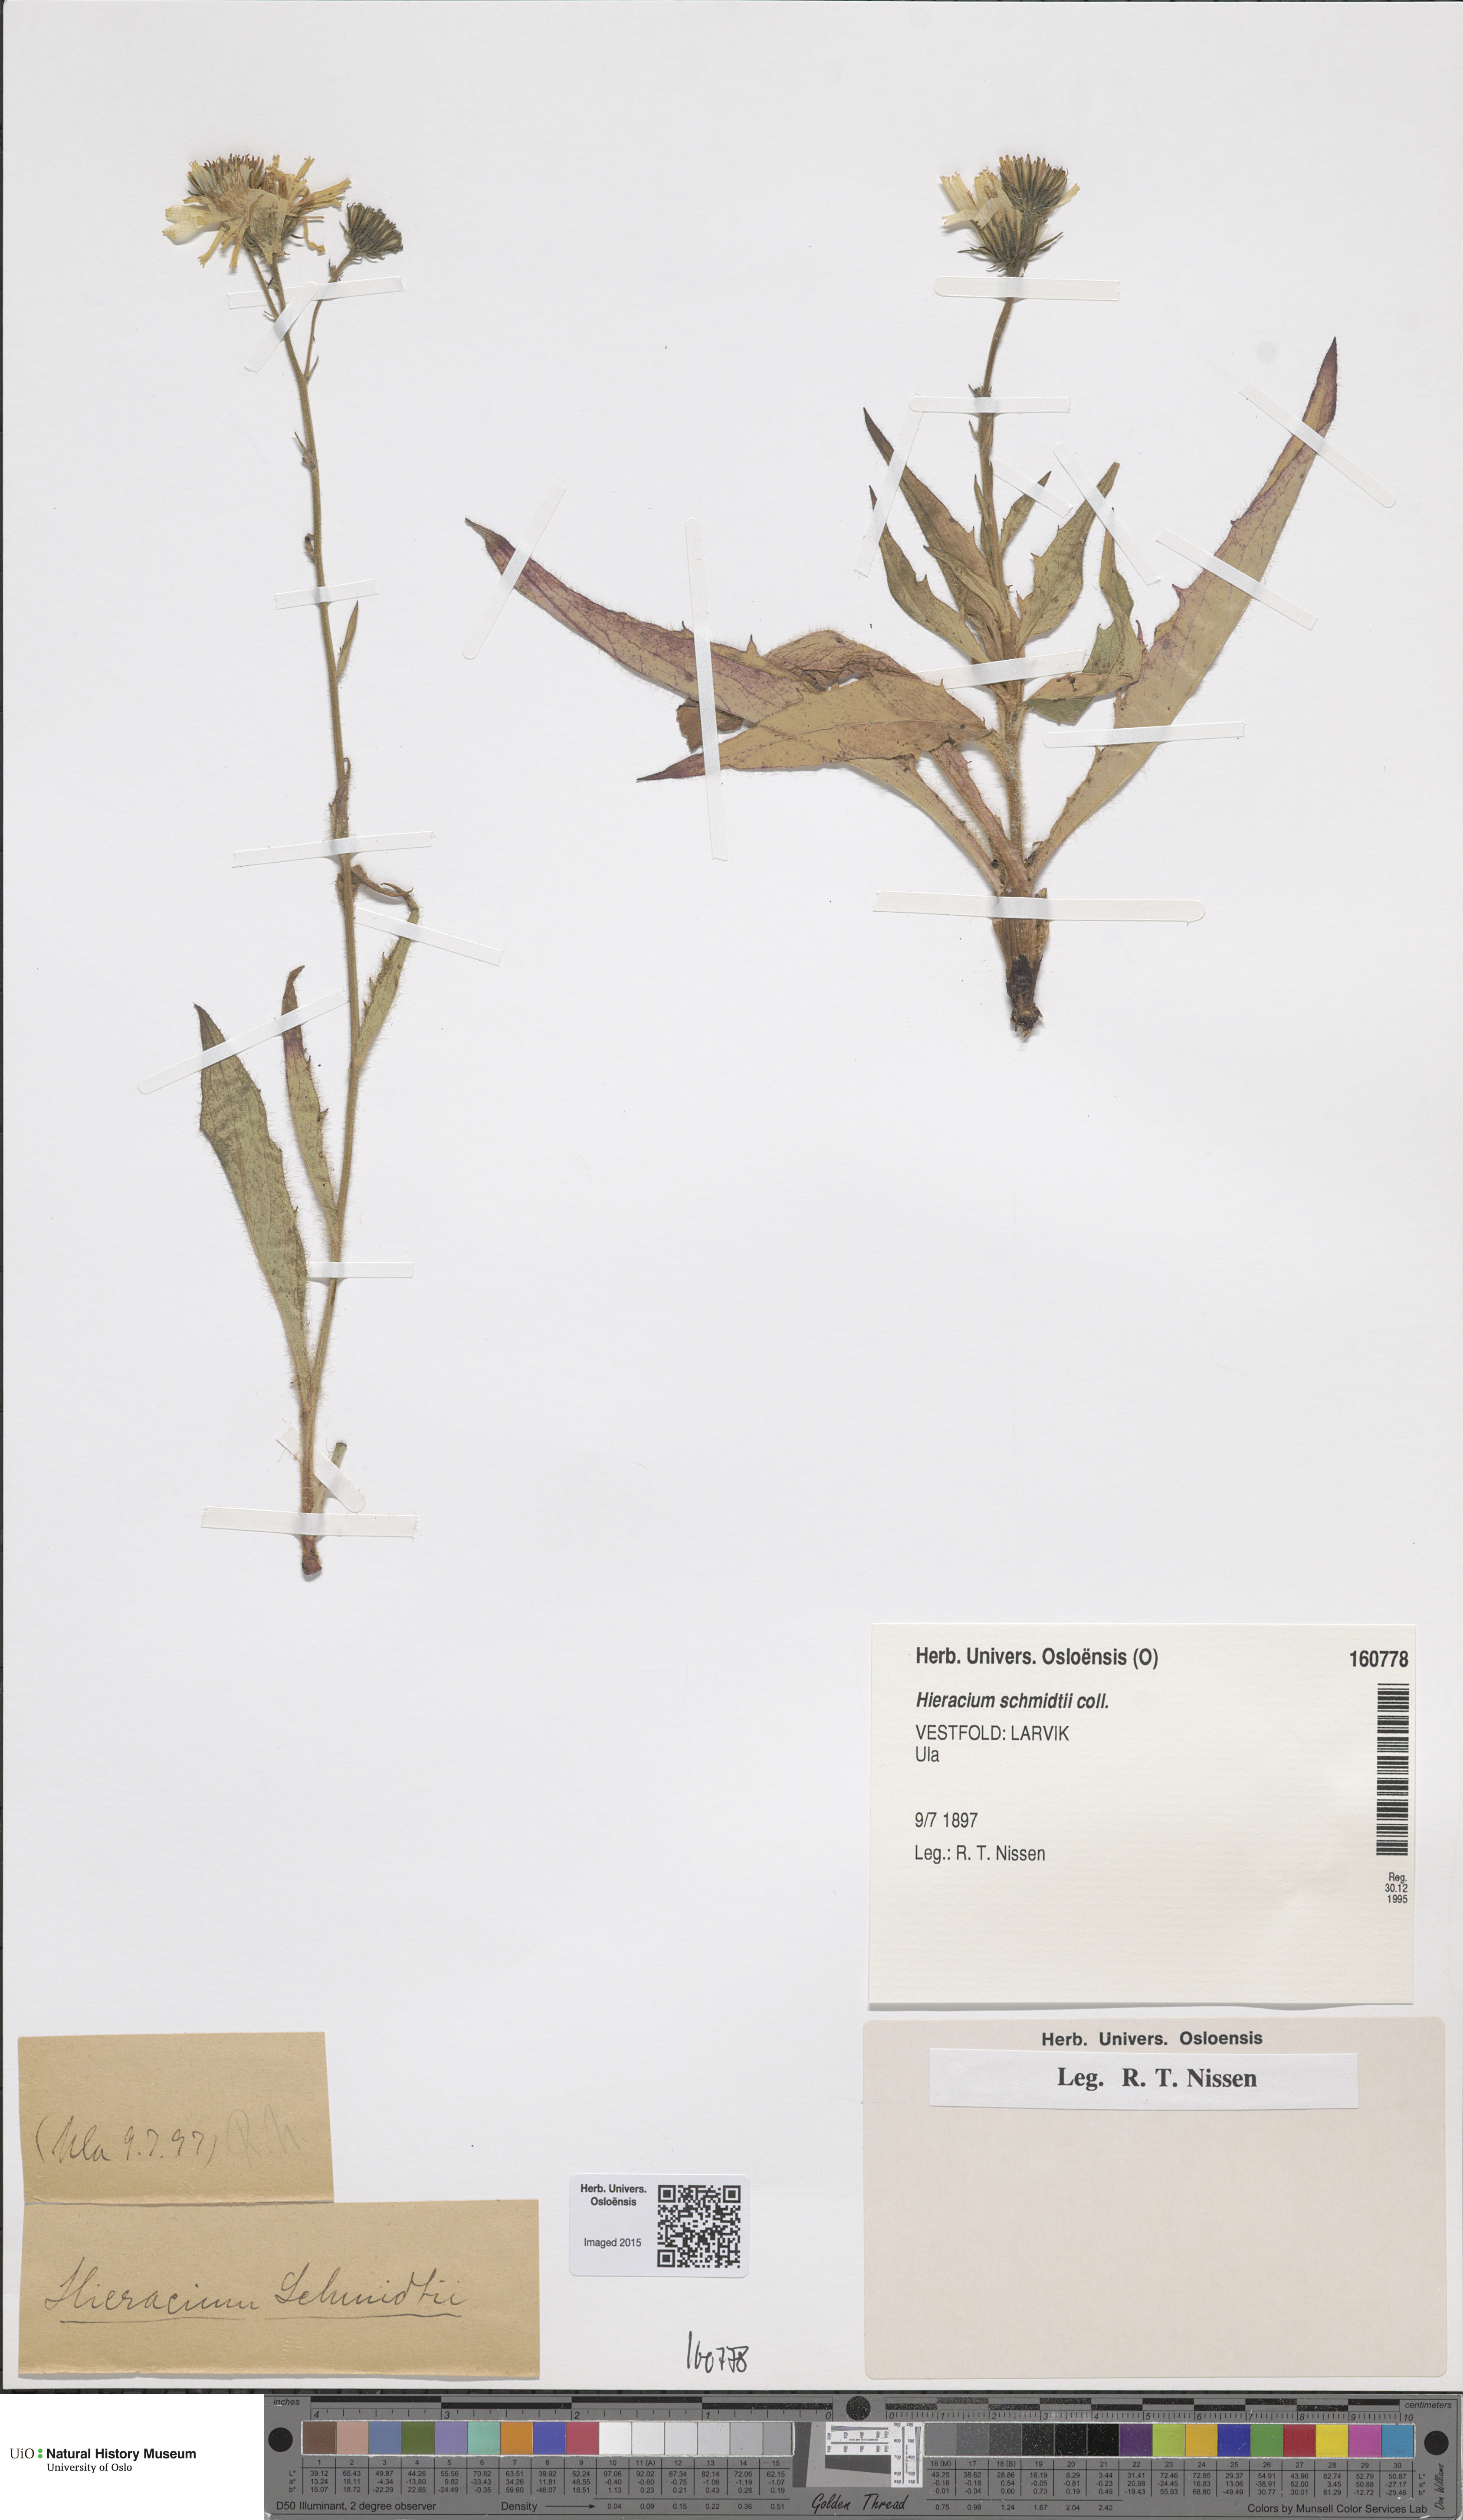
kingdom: Plantae
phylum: Tracheophyta
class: Magnoliopsida
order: Asterales
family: Asteraceae
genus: Hieracium
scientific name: Hieracium schmidtii
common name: Schmidt's hawkweed
